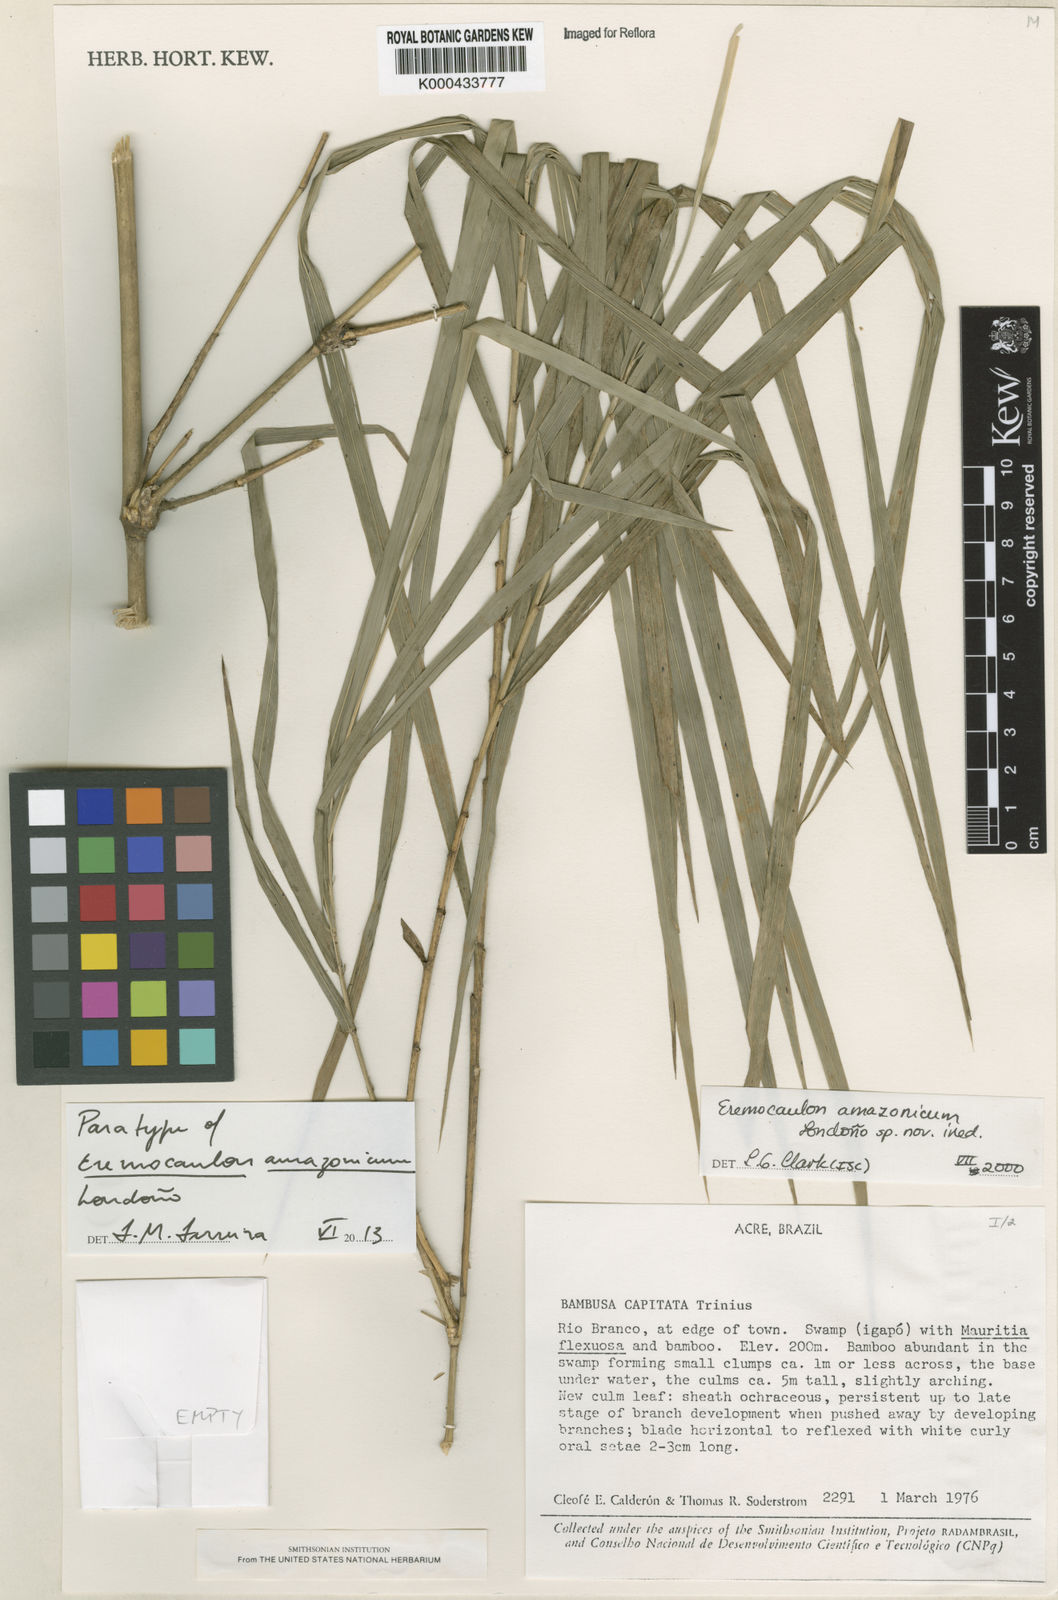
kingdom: Plantae
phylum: Tracheophyta
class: Liliopsida
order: Poales
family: Poaceae
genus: Eremocaulon
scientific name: Eremocaulon
